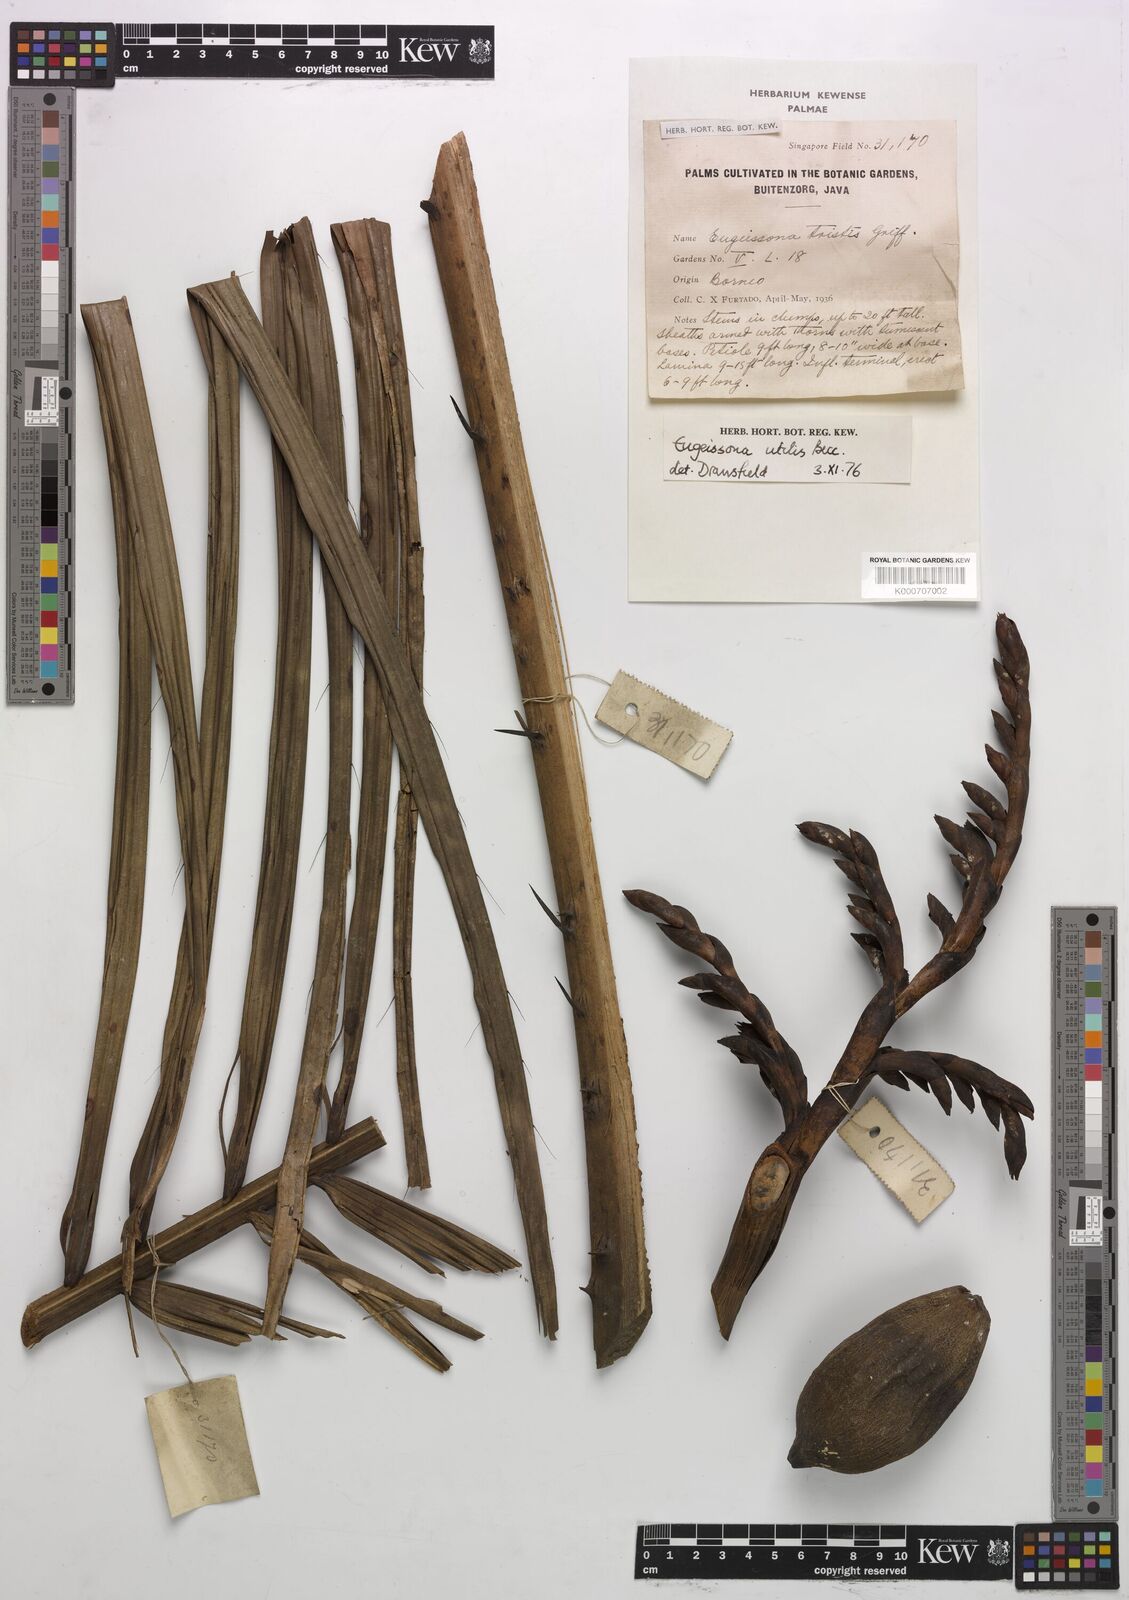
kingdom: Plantae
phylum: Tracheophyta
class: Liliopsida
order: Arecales
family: Arecaceae
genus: Eugeissona
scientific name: Eugeissona utilis
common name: Wild bornean sago palm
